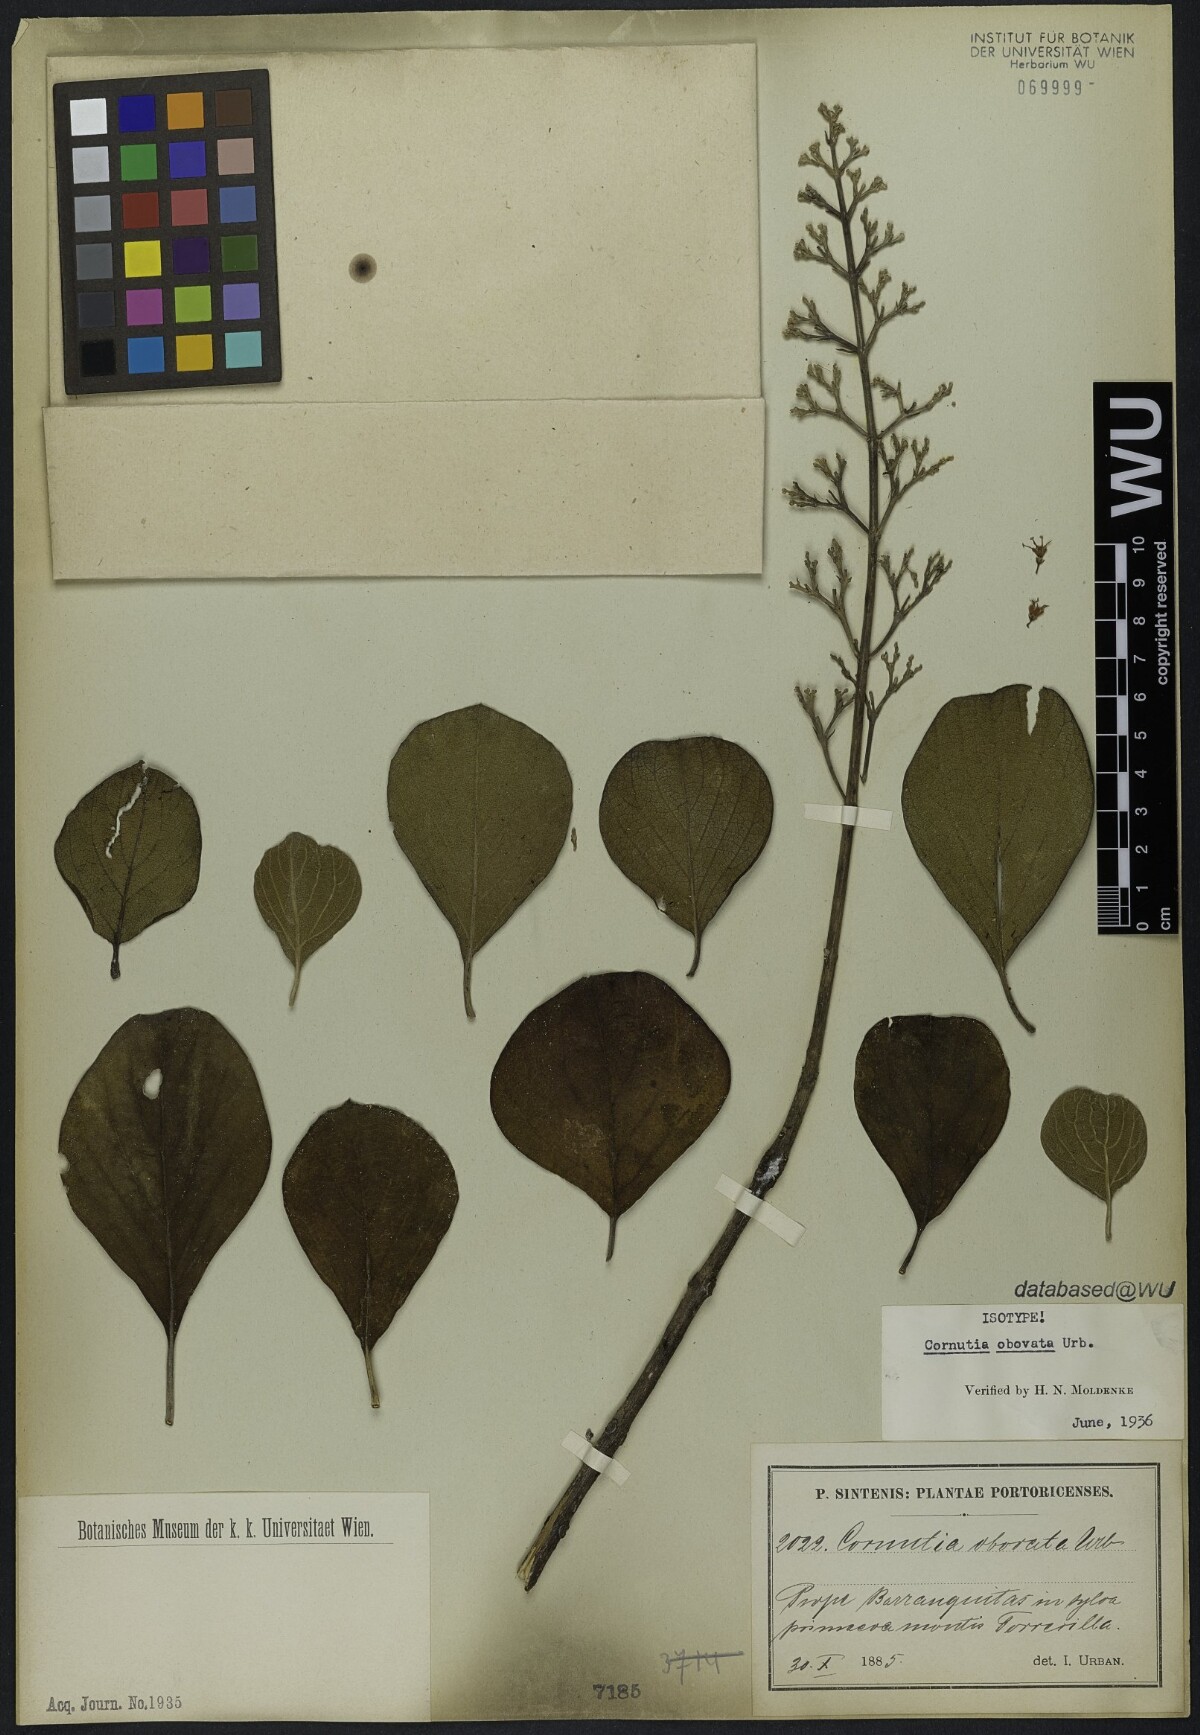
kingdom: Plantae
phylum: Tracheophyta
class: Magnoliopsida
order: Lamiales
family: Lamiaceae
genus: Cornutia
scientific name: Cornutia obovata
